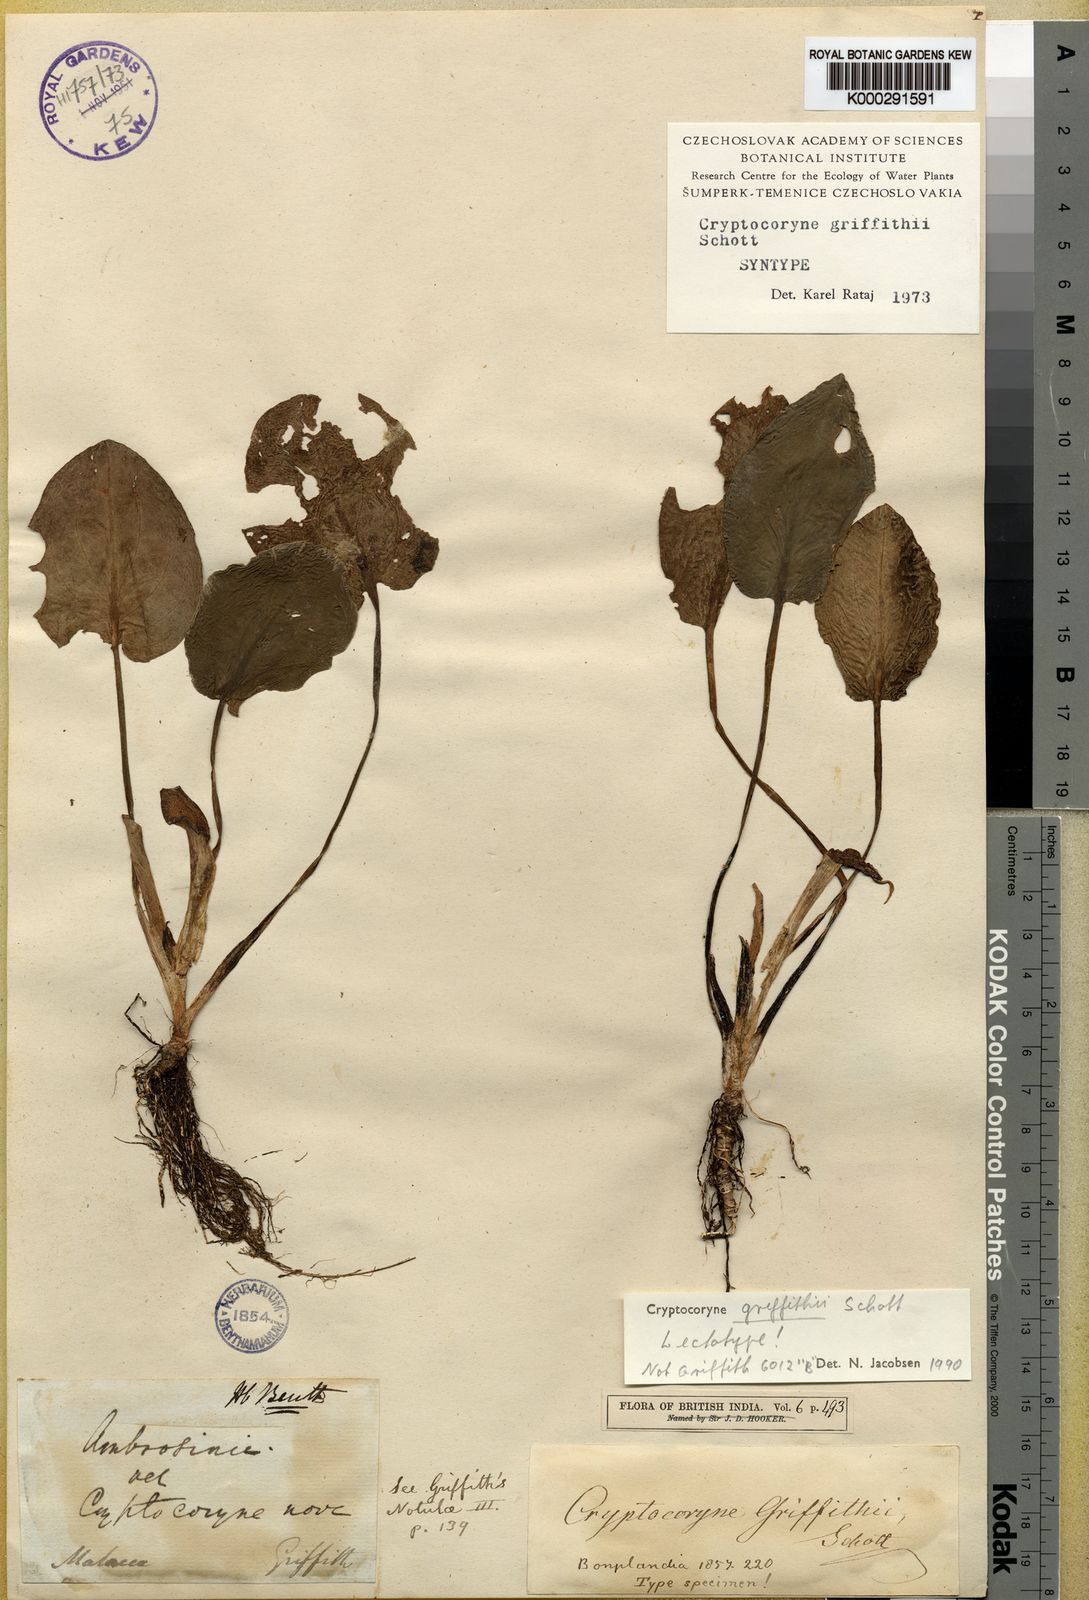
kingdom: Plantae
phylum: Tracheophyta
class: Liliopsida
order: Alismatales
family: Araceae
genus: Cryptocoryne
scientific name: Cryptocoryne griffithii
